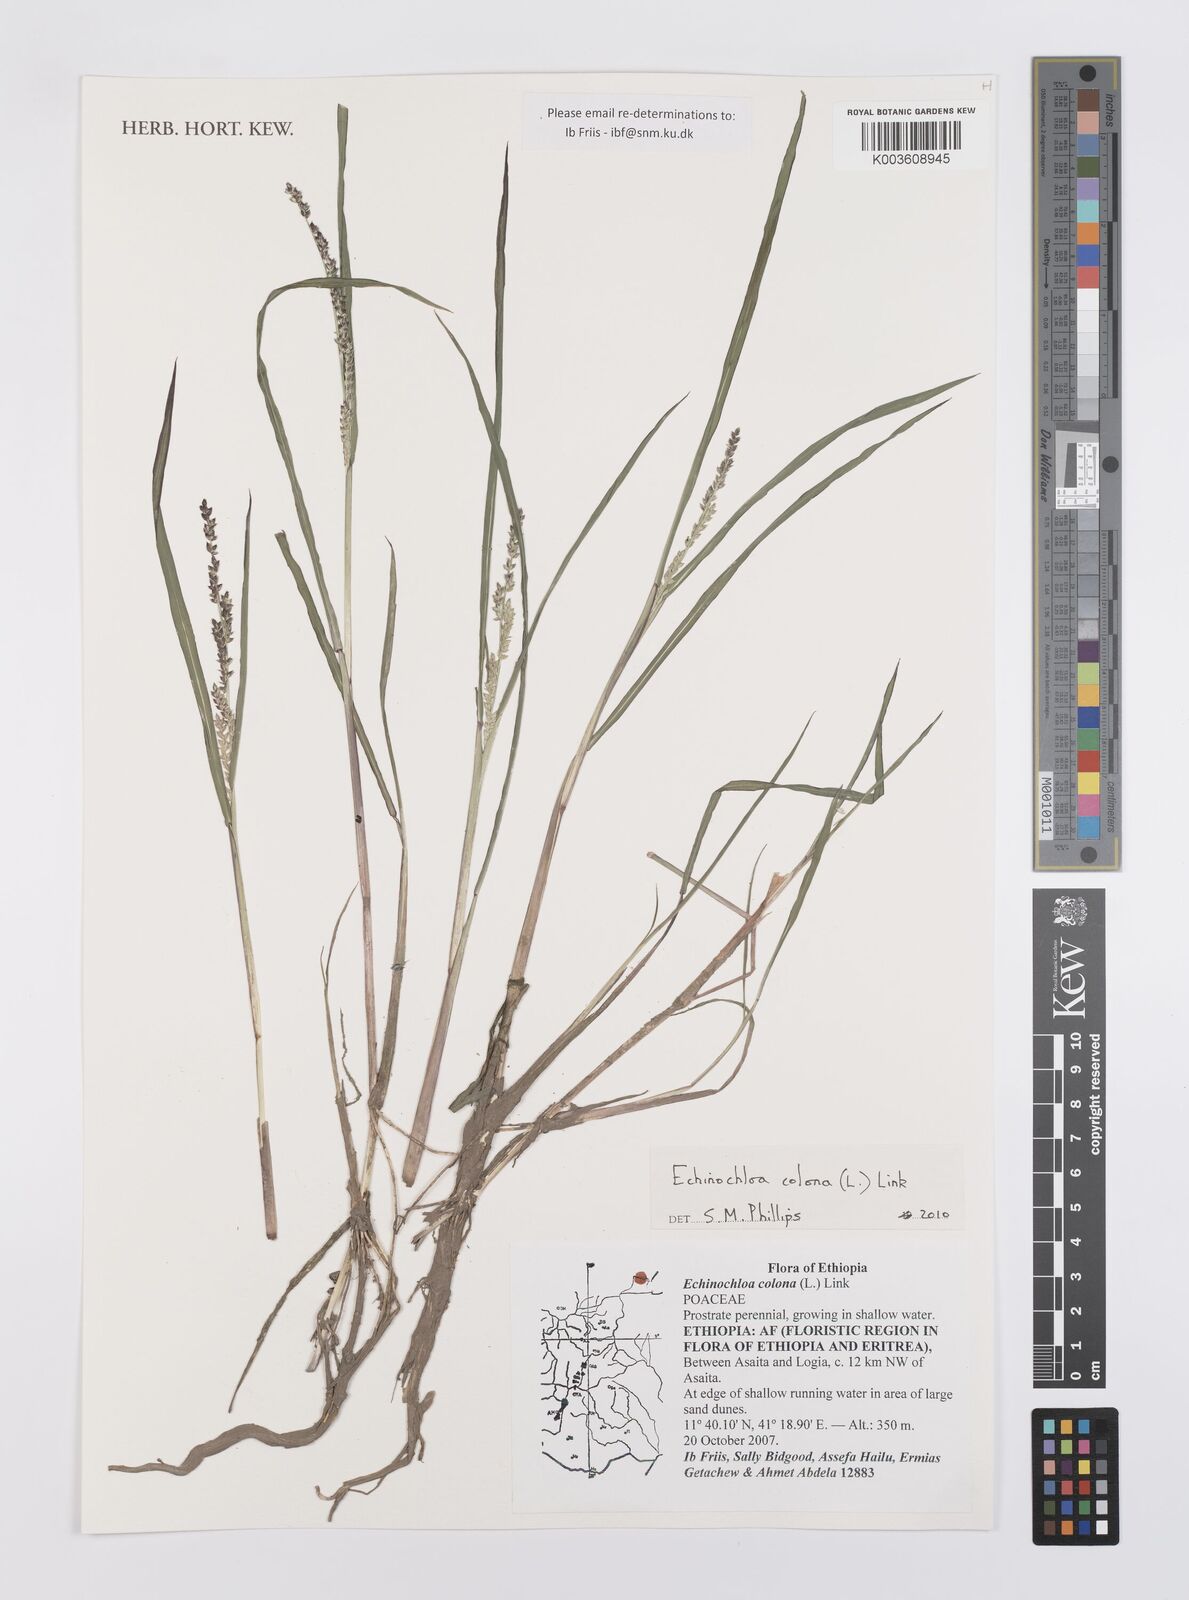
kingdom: Plantae
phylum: Tracheophyta
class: Liliopsida
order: Poales
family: Poaceae
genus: Echinochloa
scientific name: Echinochloa colonum
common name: Jungle rice
